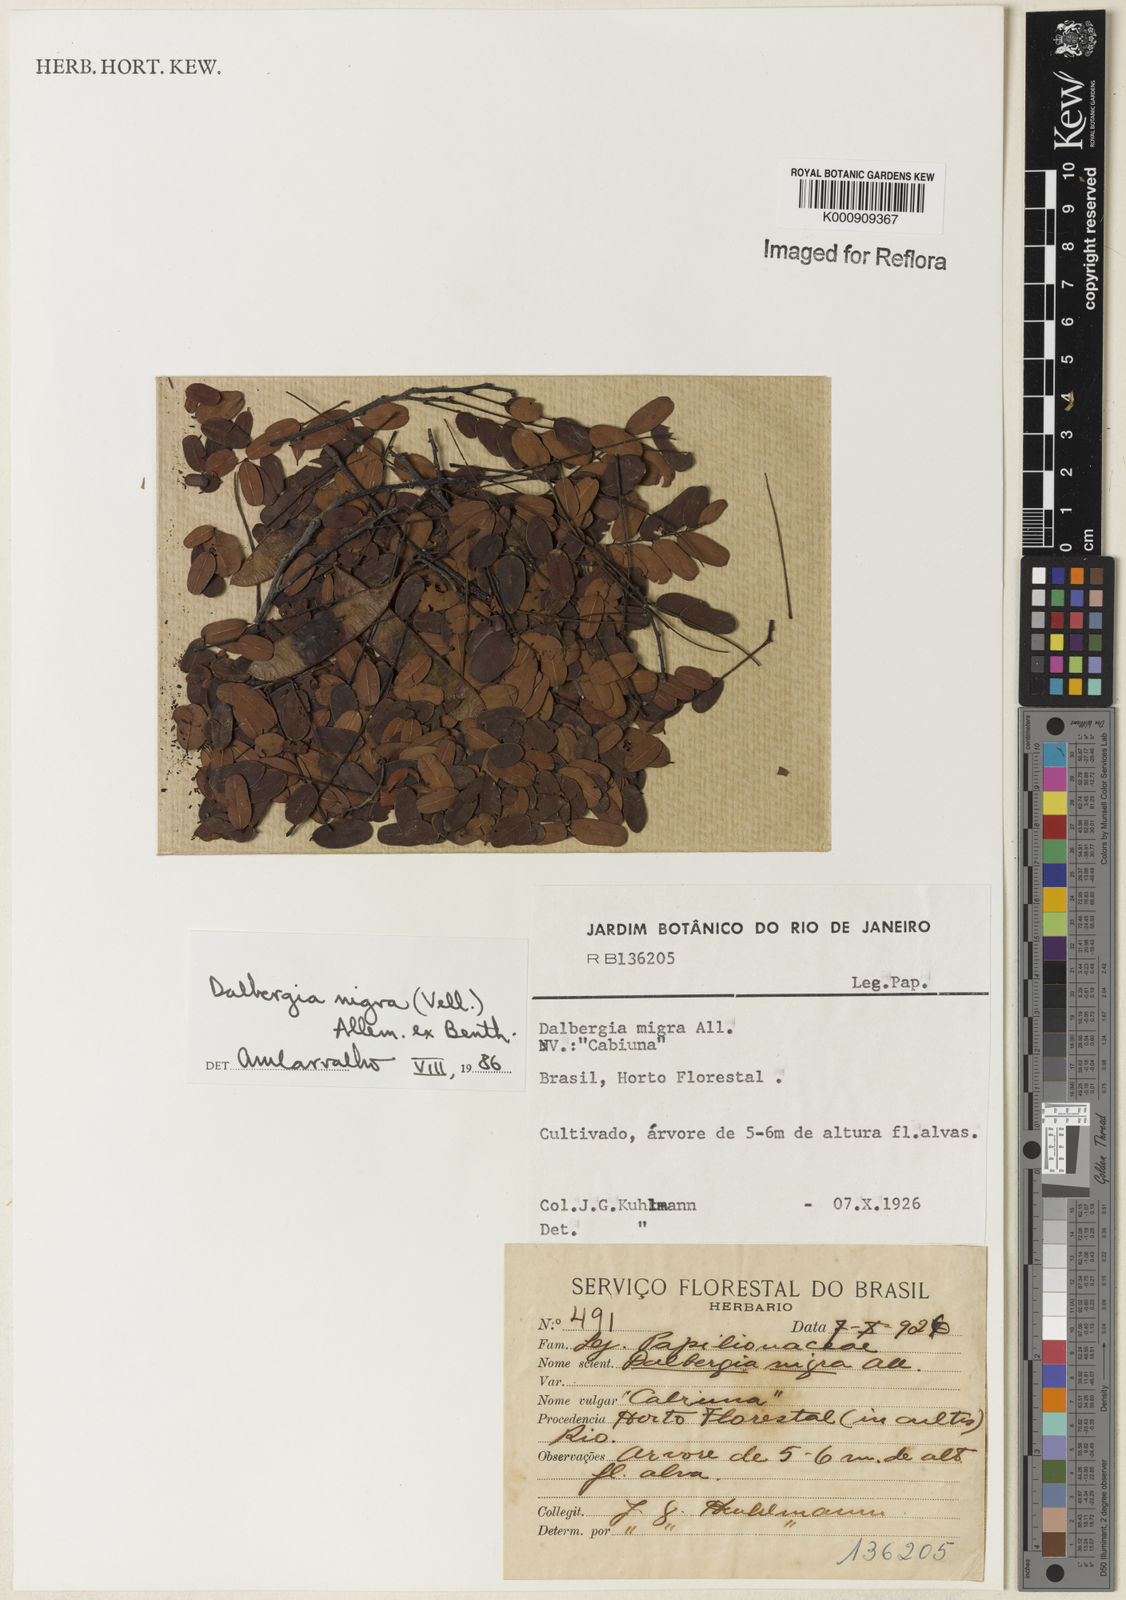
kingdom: Plantae
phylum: Tracheophyta
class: Magnoliopsida
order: Fabales
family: Fabaceae
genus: Dalbergia
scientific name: Dalbergia
